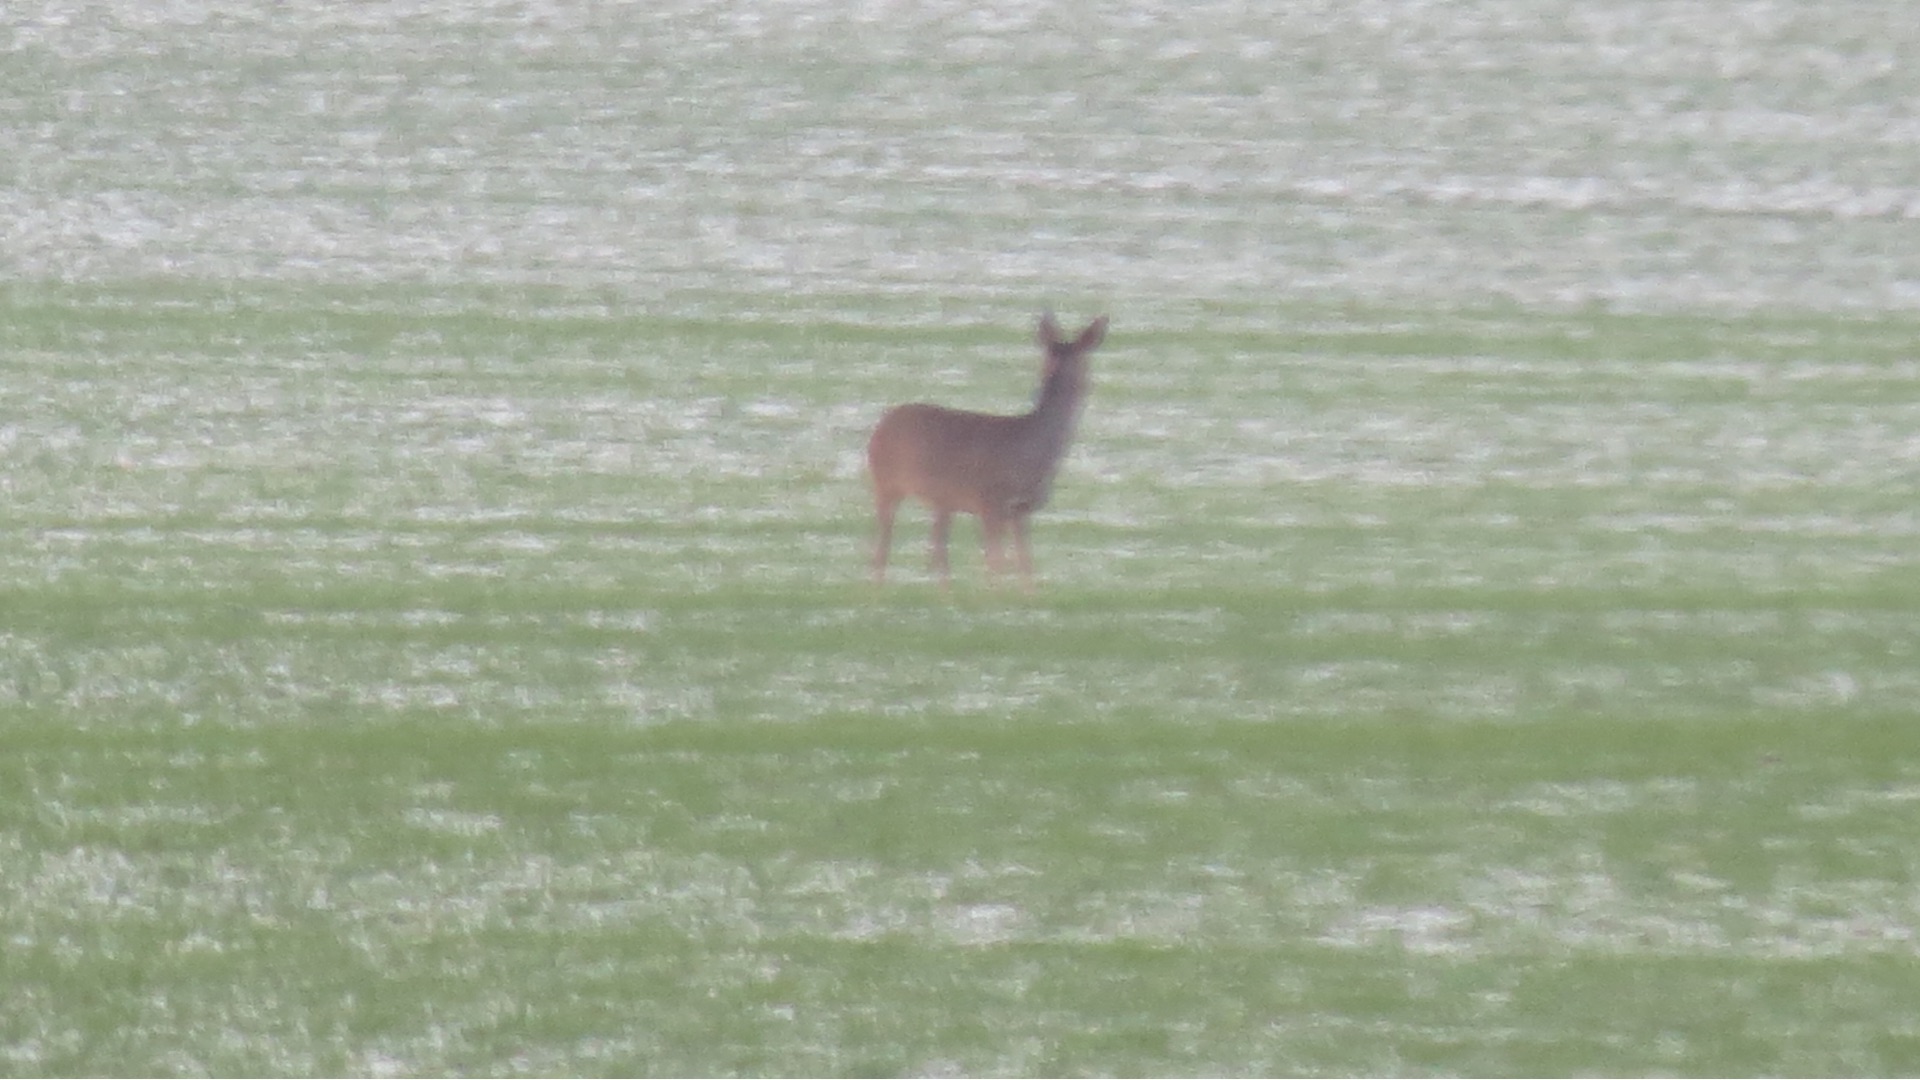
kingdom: Animalia
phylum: Chordata
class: Mammalia
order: Artiodactyla
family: Cervidae
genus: Capreolus
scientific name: Capreolus capreolus
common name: Rådyr
